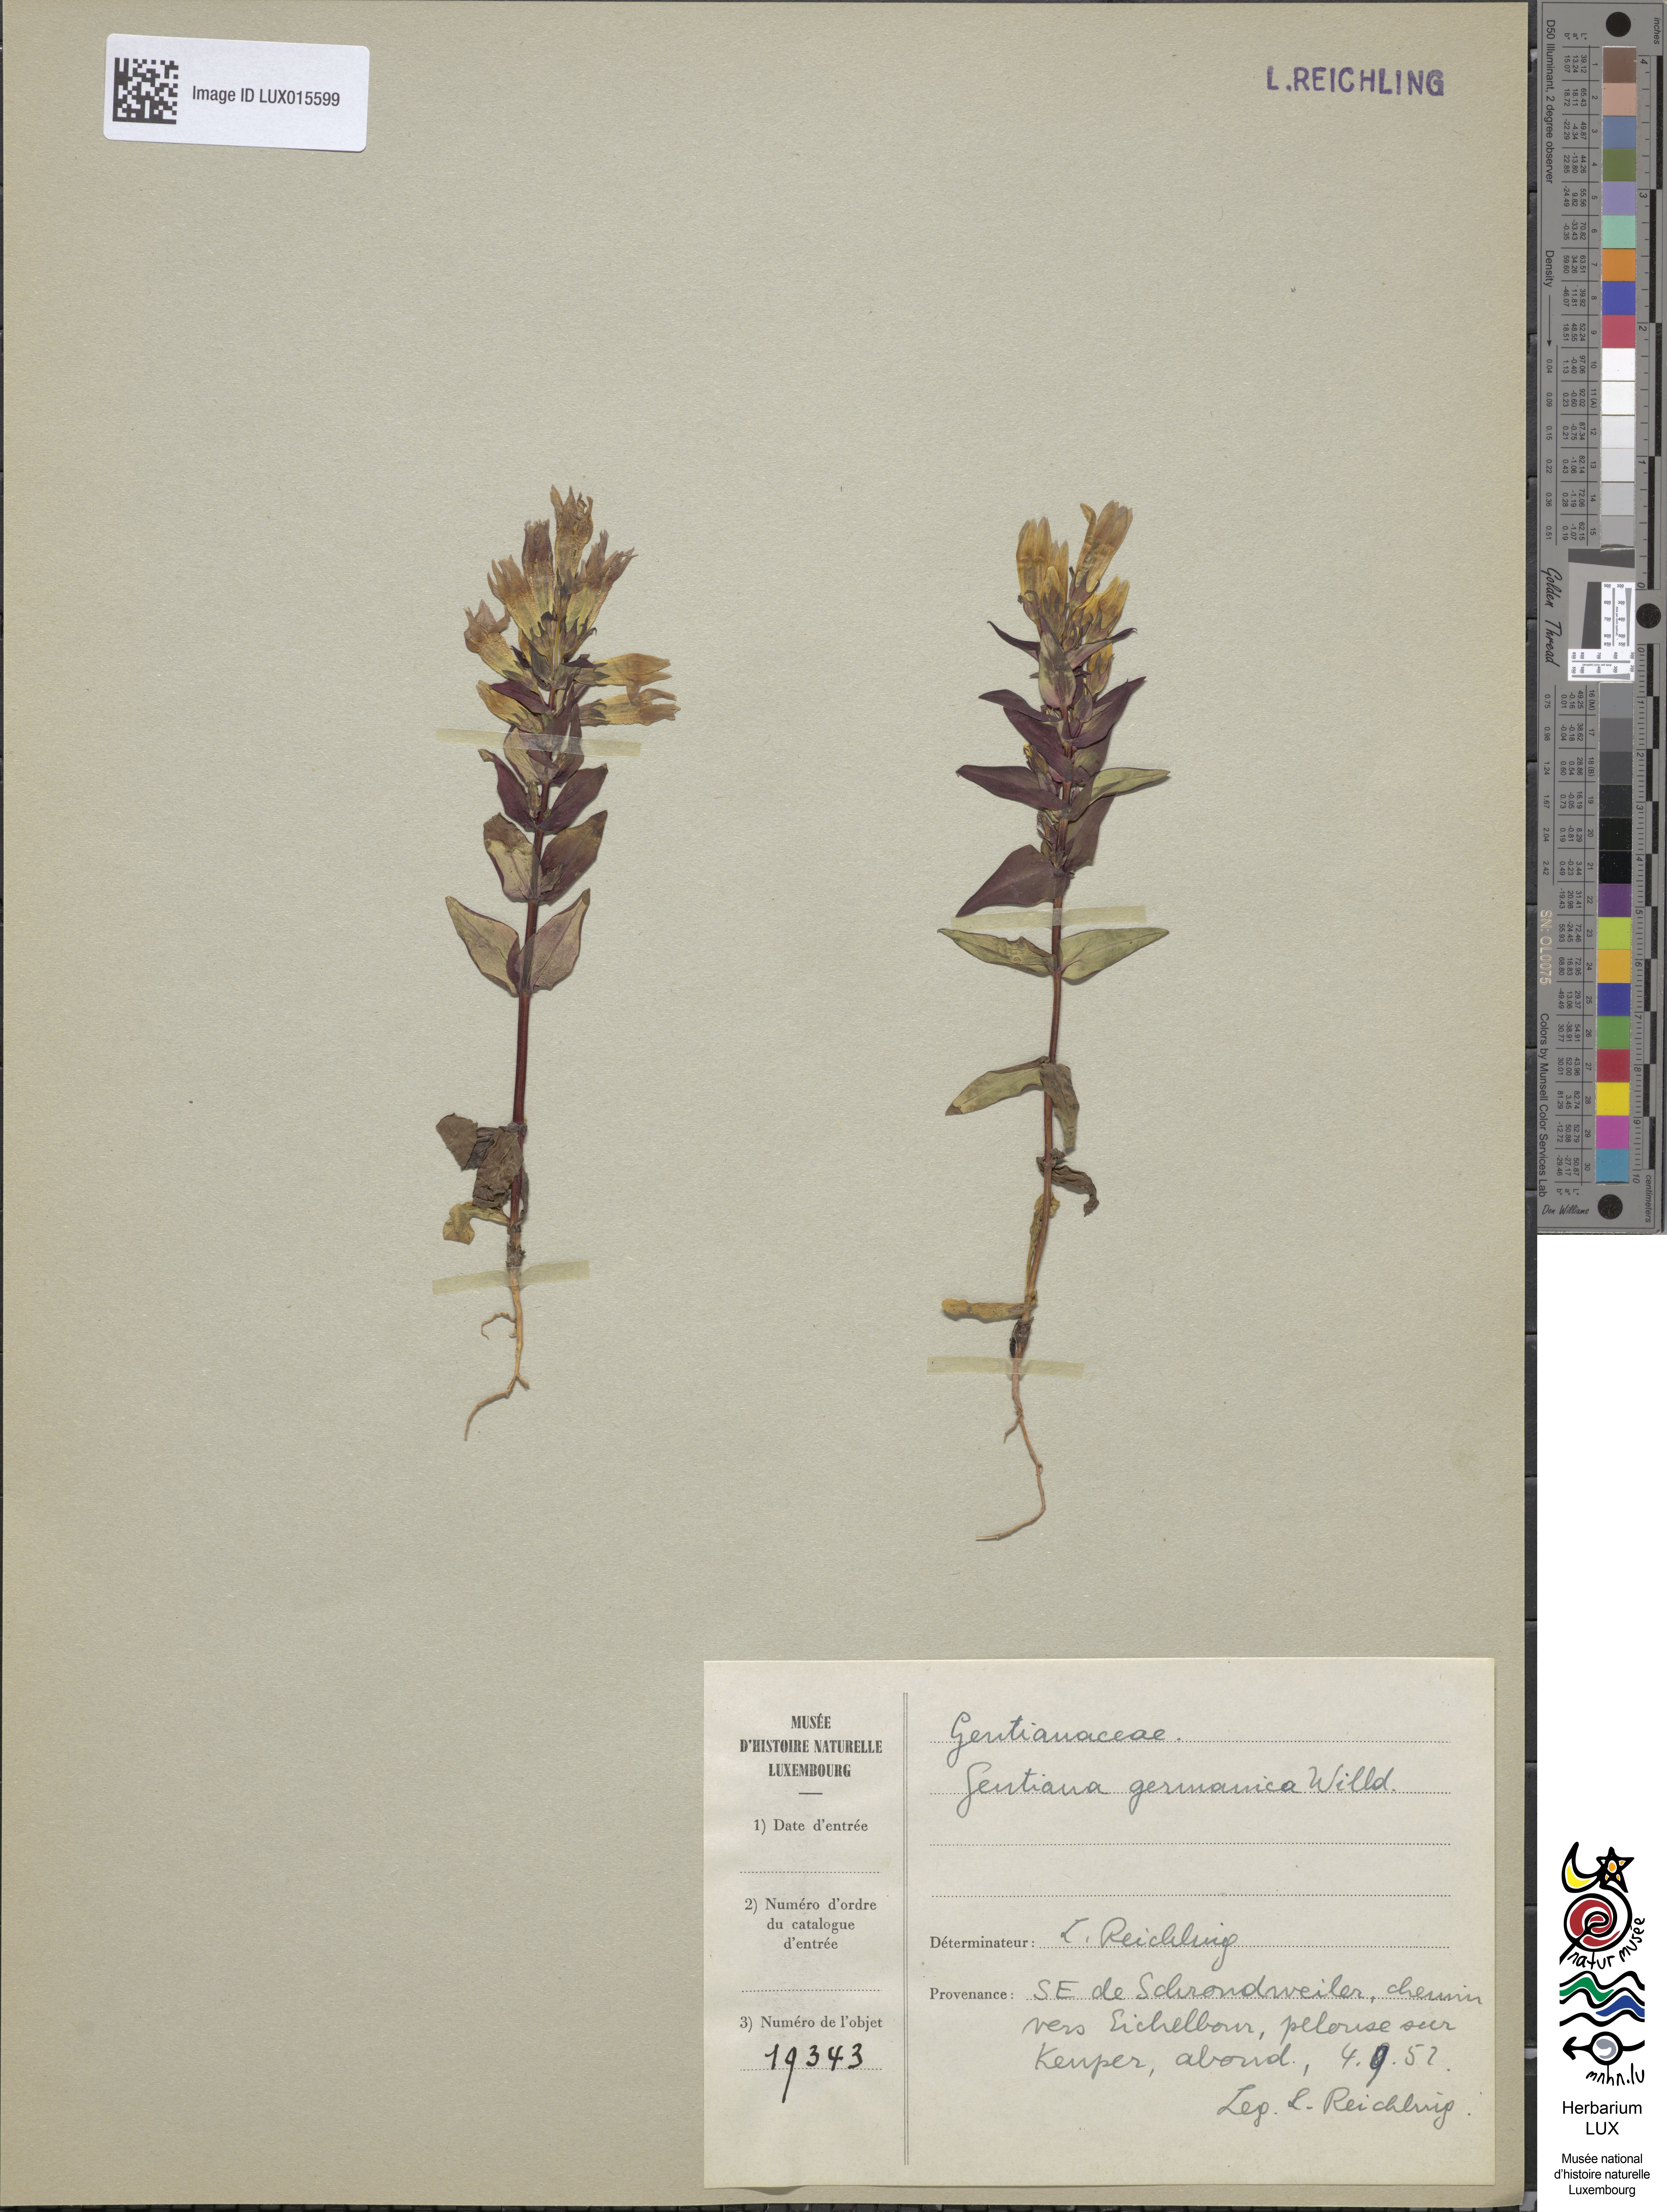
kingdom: Plantae
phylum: Tracheophyta
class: Magnoliopsida
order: Gentianales
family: Gentianaceae
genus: Gentianella
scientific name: Gentianella germanica
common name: Chiltern-gentian
